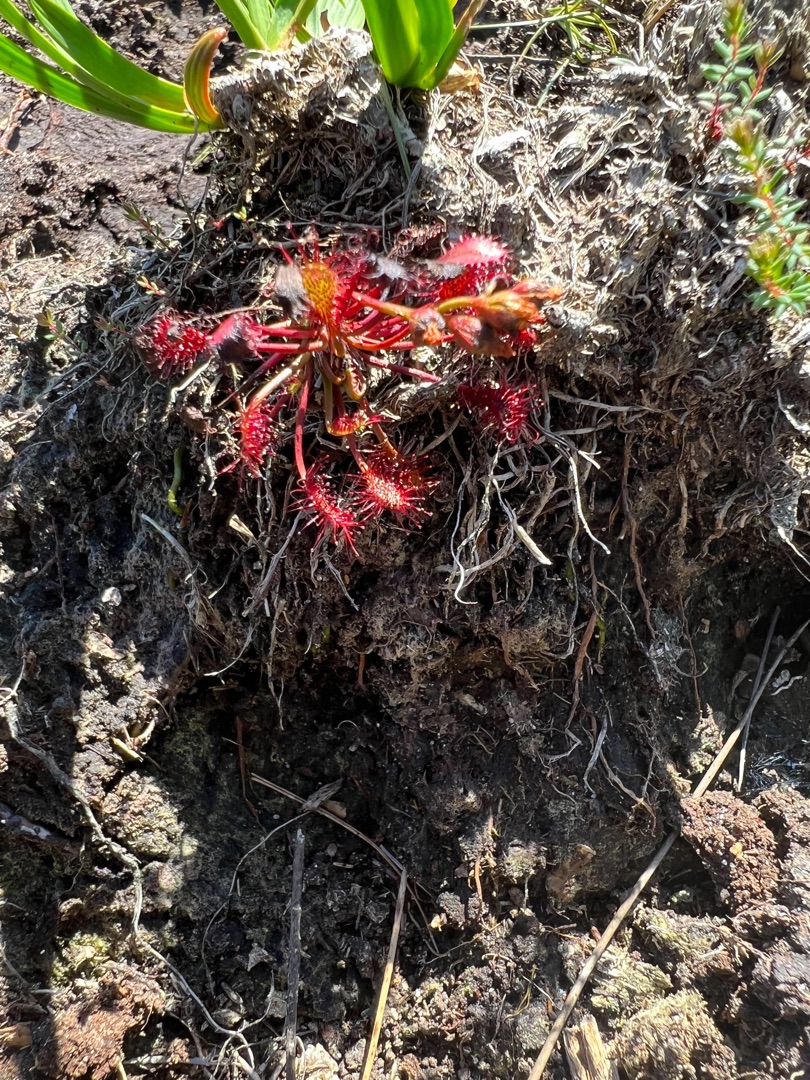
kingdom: Plantae
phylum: Tracheophyta
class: Magnoliopsida
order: Caryophyllales
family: Droseraceae
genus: Drosera
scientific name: Drosera intermedia
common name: Liden soldug
